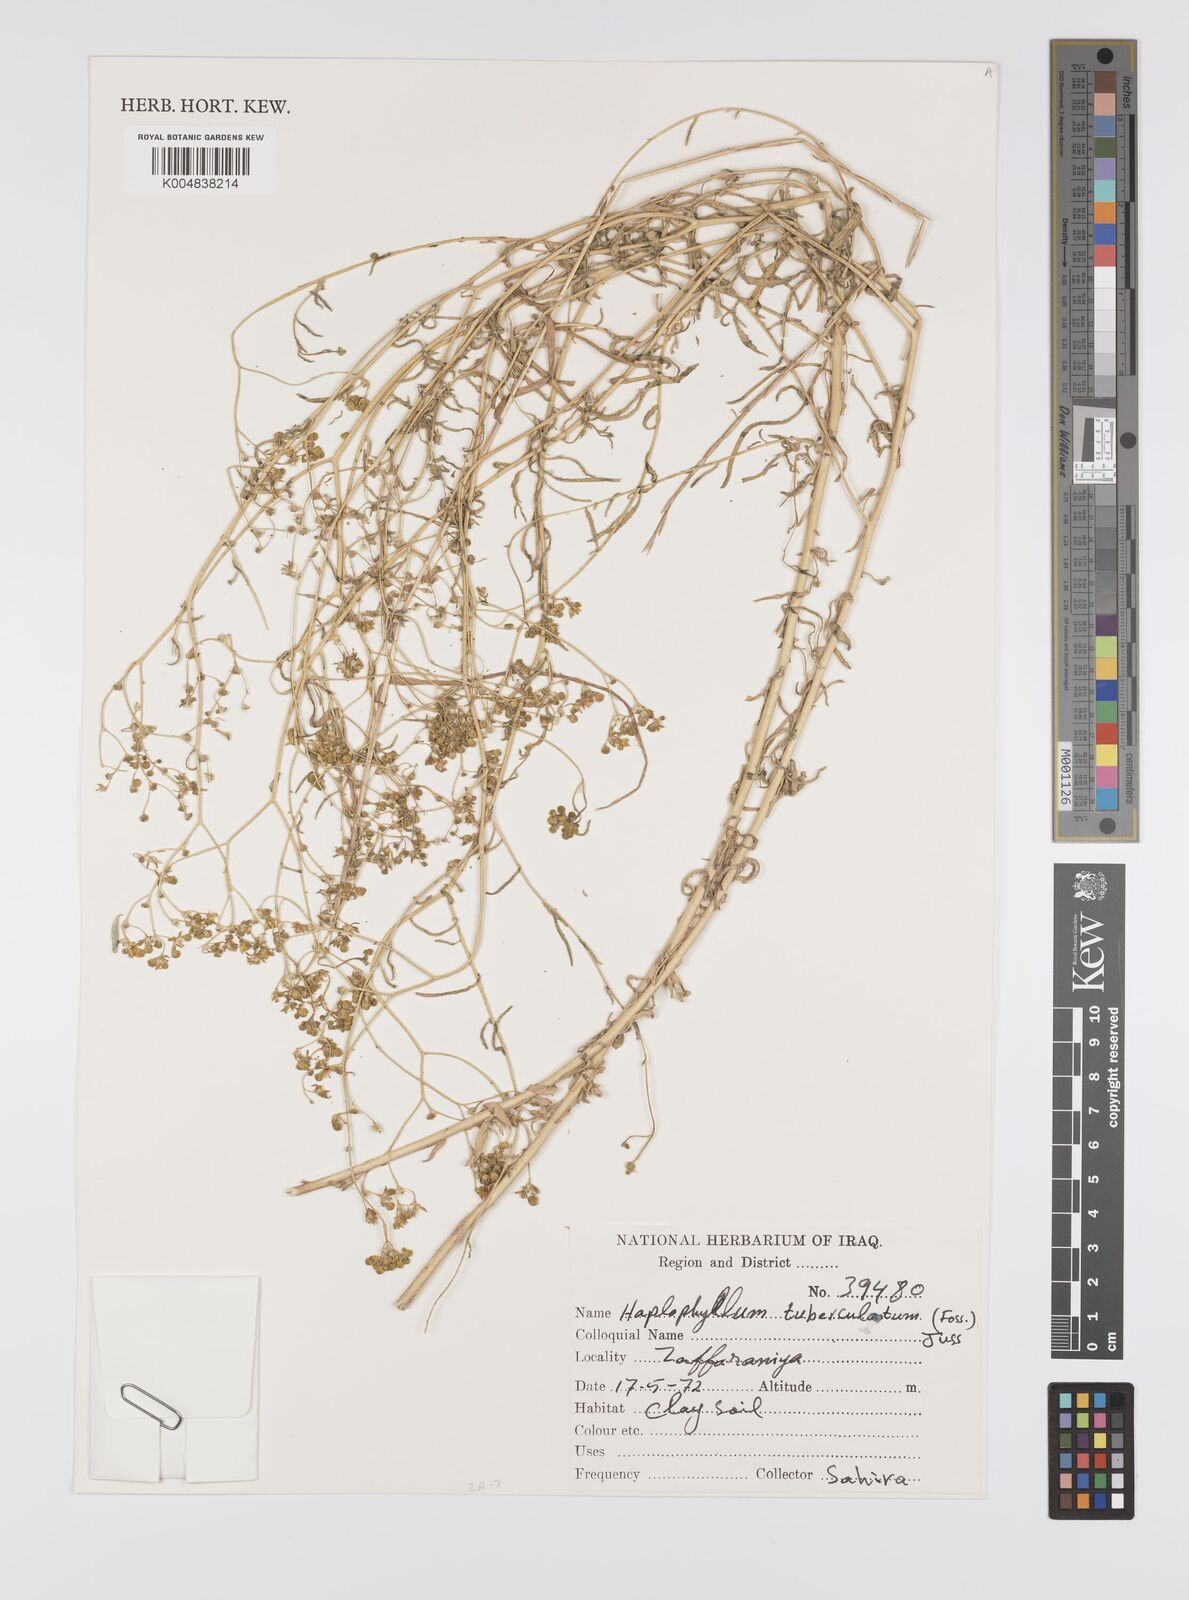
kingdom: Plantae
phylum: Tracheophyta
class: Magnoliopsida
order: Sapindales
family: Rutaceae
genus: Haplophyllum
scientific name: Haplophyllum tuberculatum
